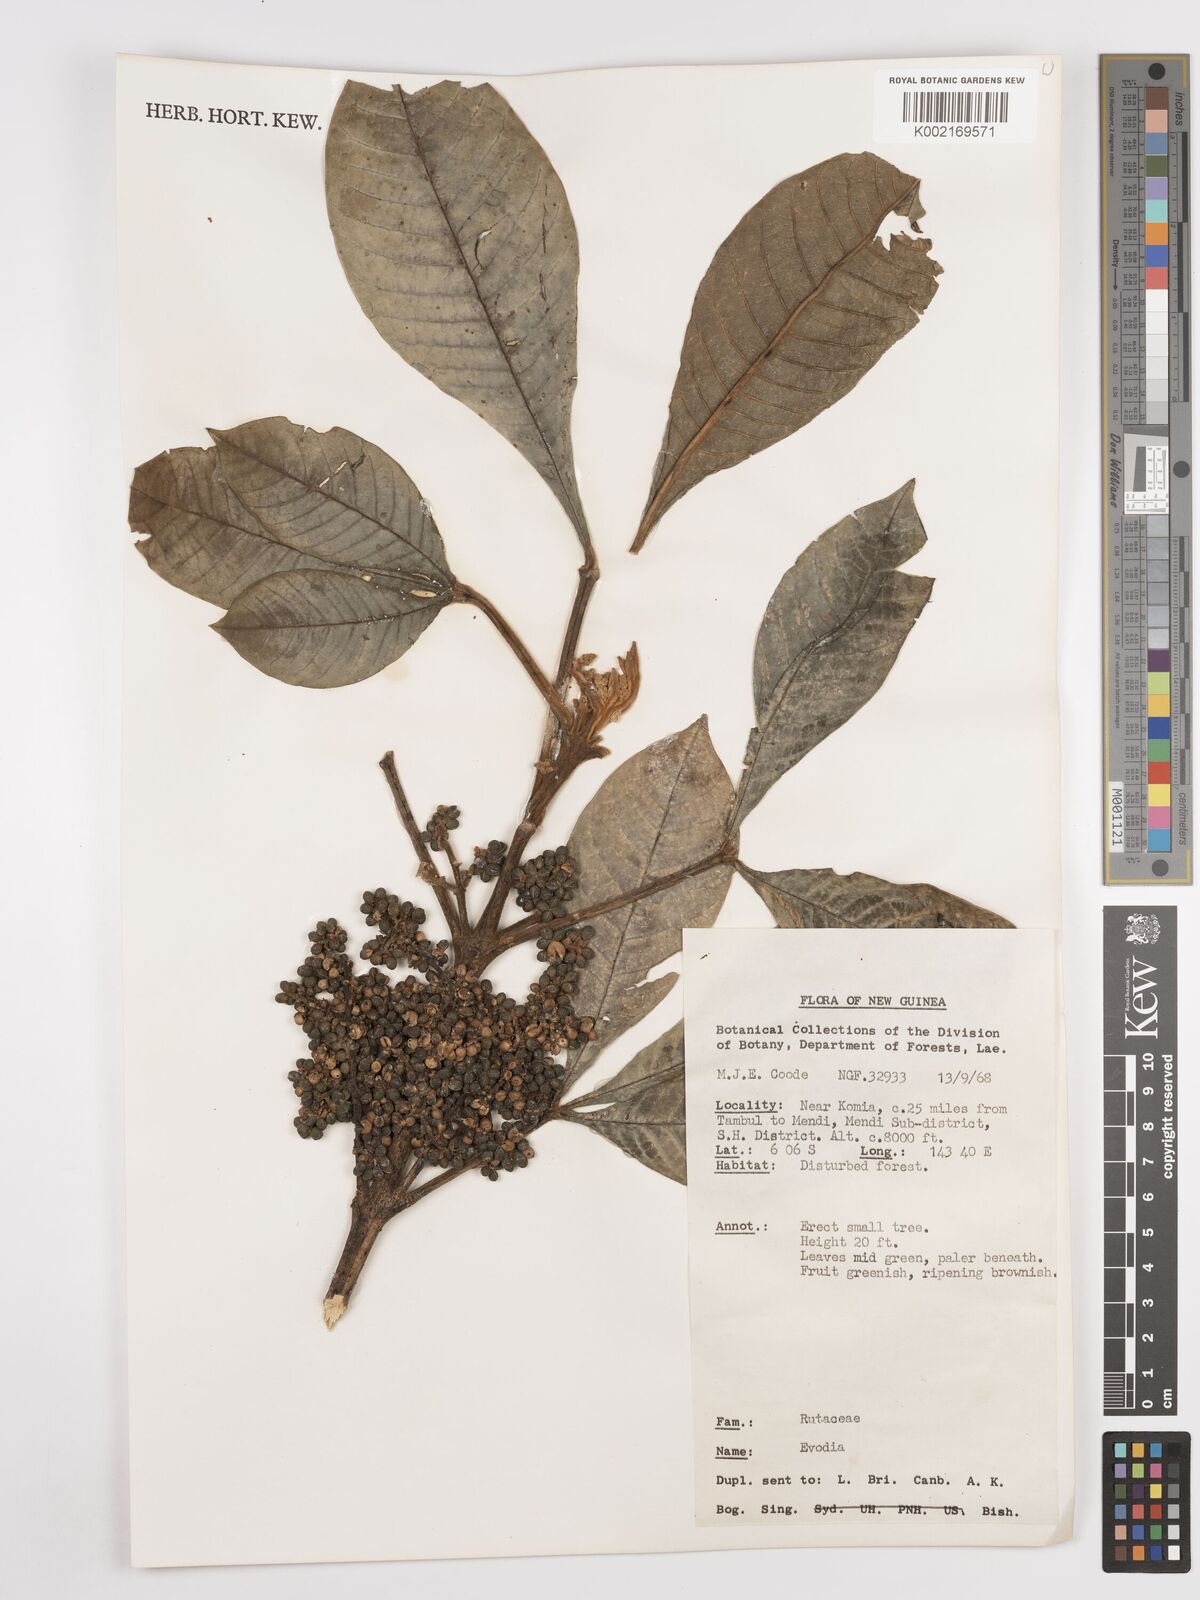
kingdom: Plantae
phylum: Tracheophyta
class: Magnoliopsida
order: Sapindales
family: Rutaceae
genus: Euodia
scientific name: Euodia
